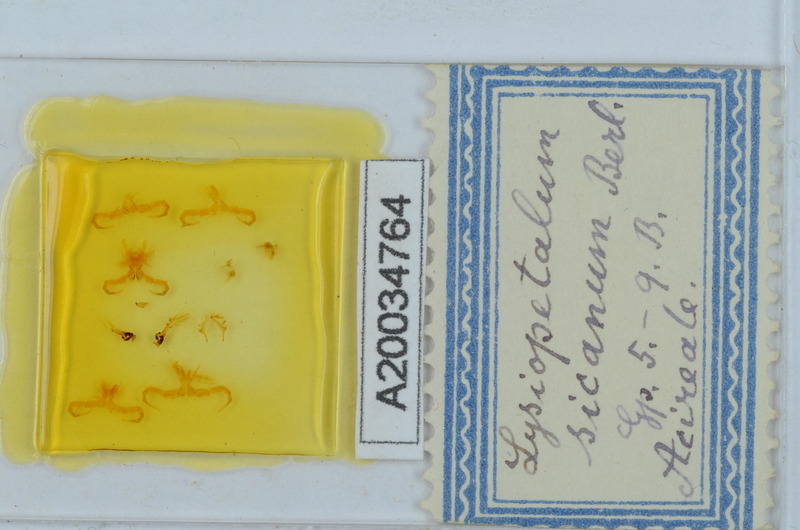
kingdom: Animalia
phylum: Arthropoda
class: Diplopoda
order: Callipodida
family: Schizopetalidae
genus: Acanthopetalum
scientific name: Acanthopetalum richii
